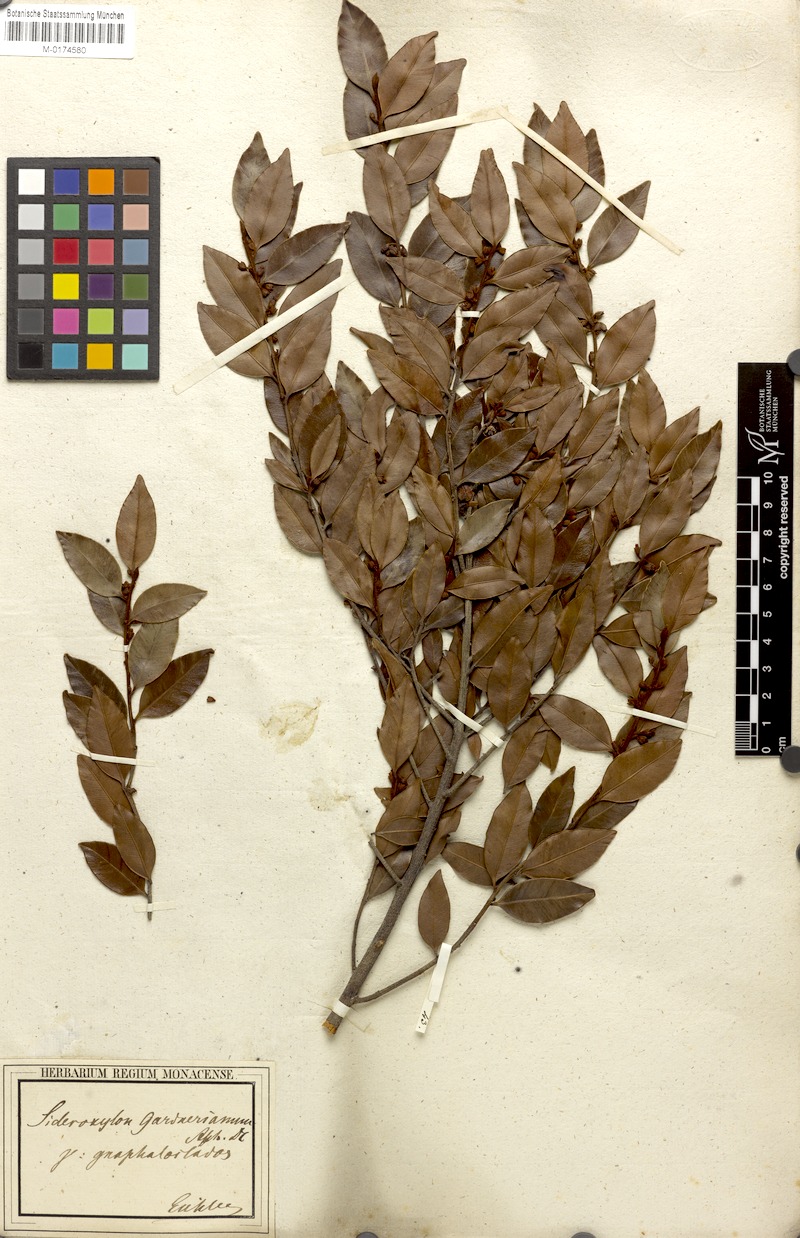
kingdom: Plantae
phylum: Tracheophyta
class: Magnoliopsida
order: Ericales
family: Sapotaceae
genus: Micropholis
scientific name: Micropholis gnaphaloclados
